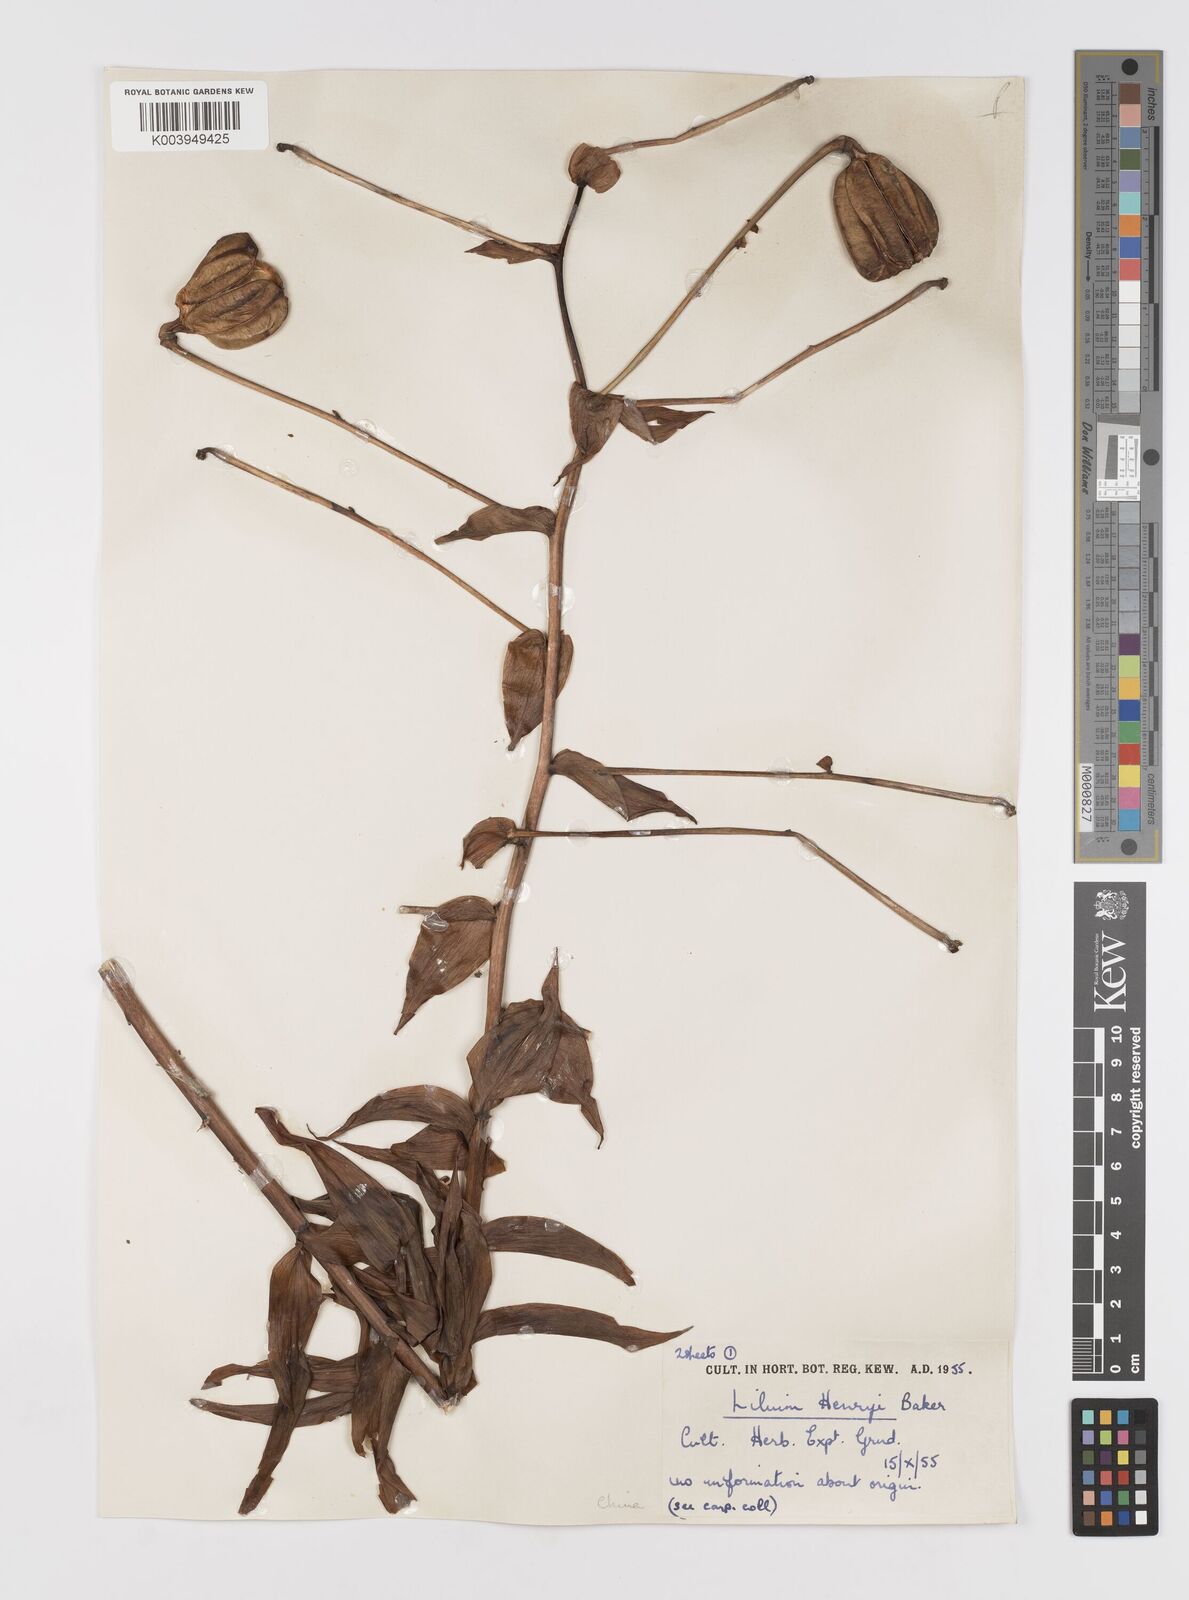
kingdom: Plantae
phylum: Tracheophyta
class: Liliopsida
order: Liliales
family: Liliaceae
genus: Lilium
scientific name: Lilium henryi
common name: Henry's lily
